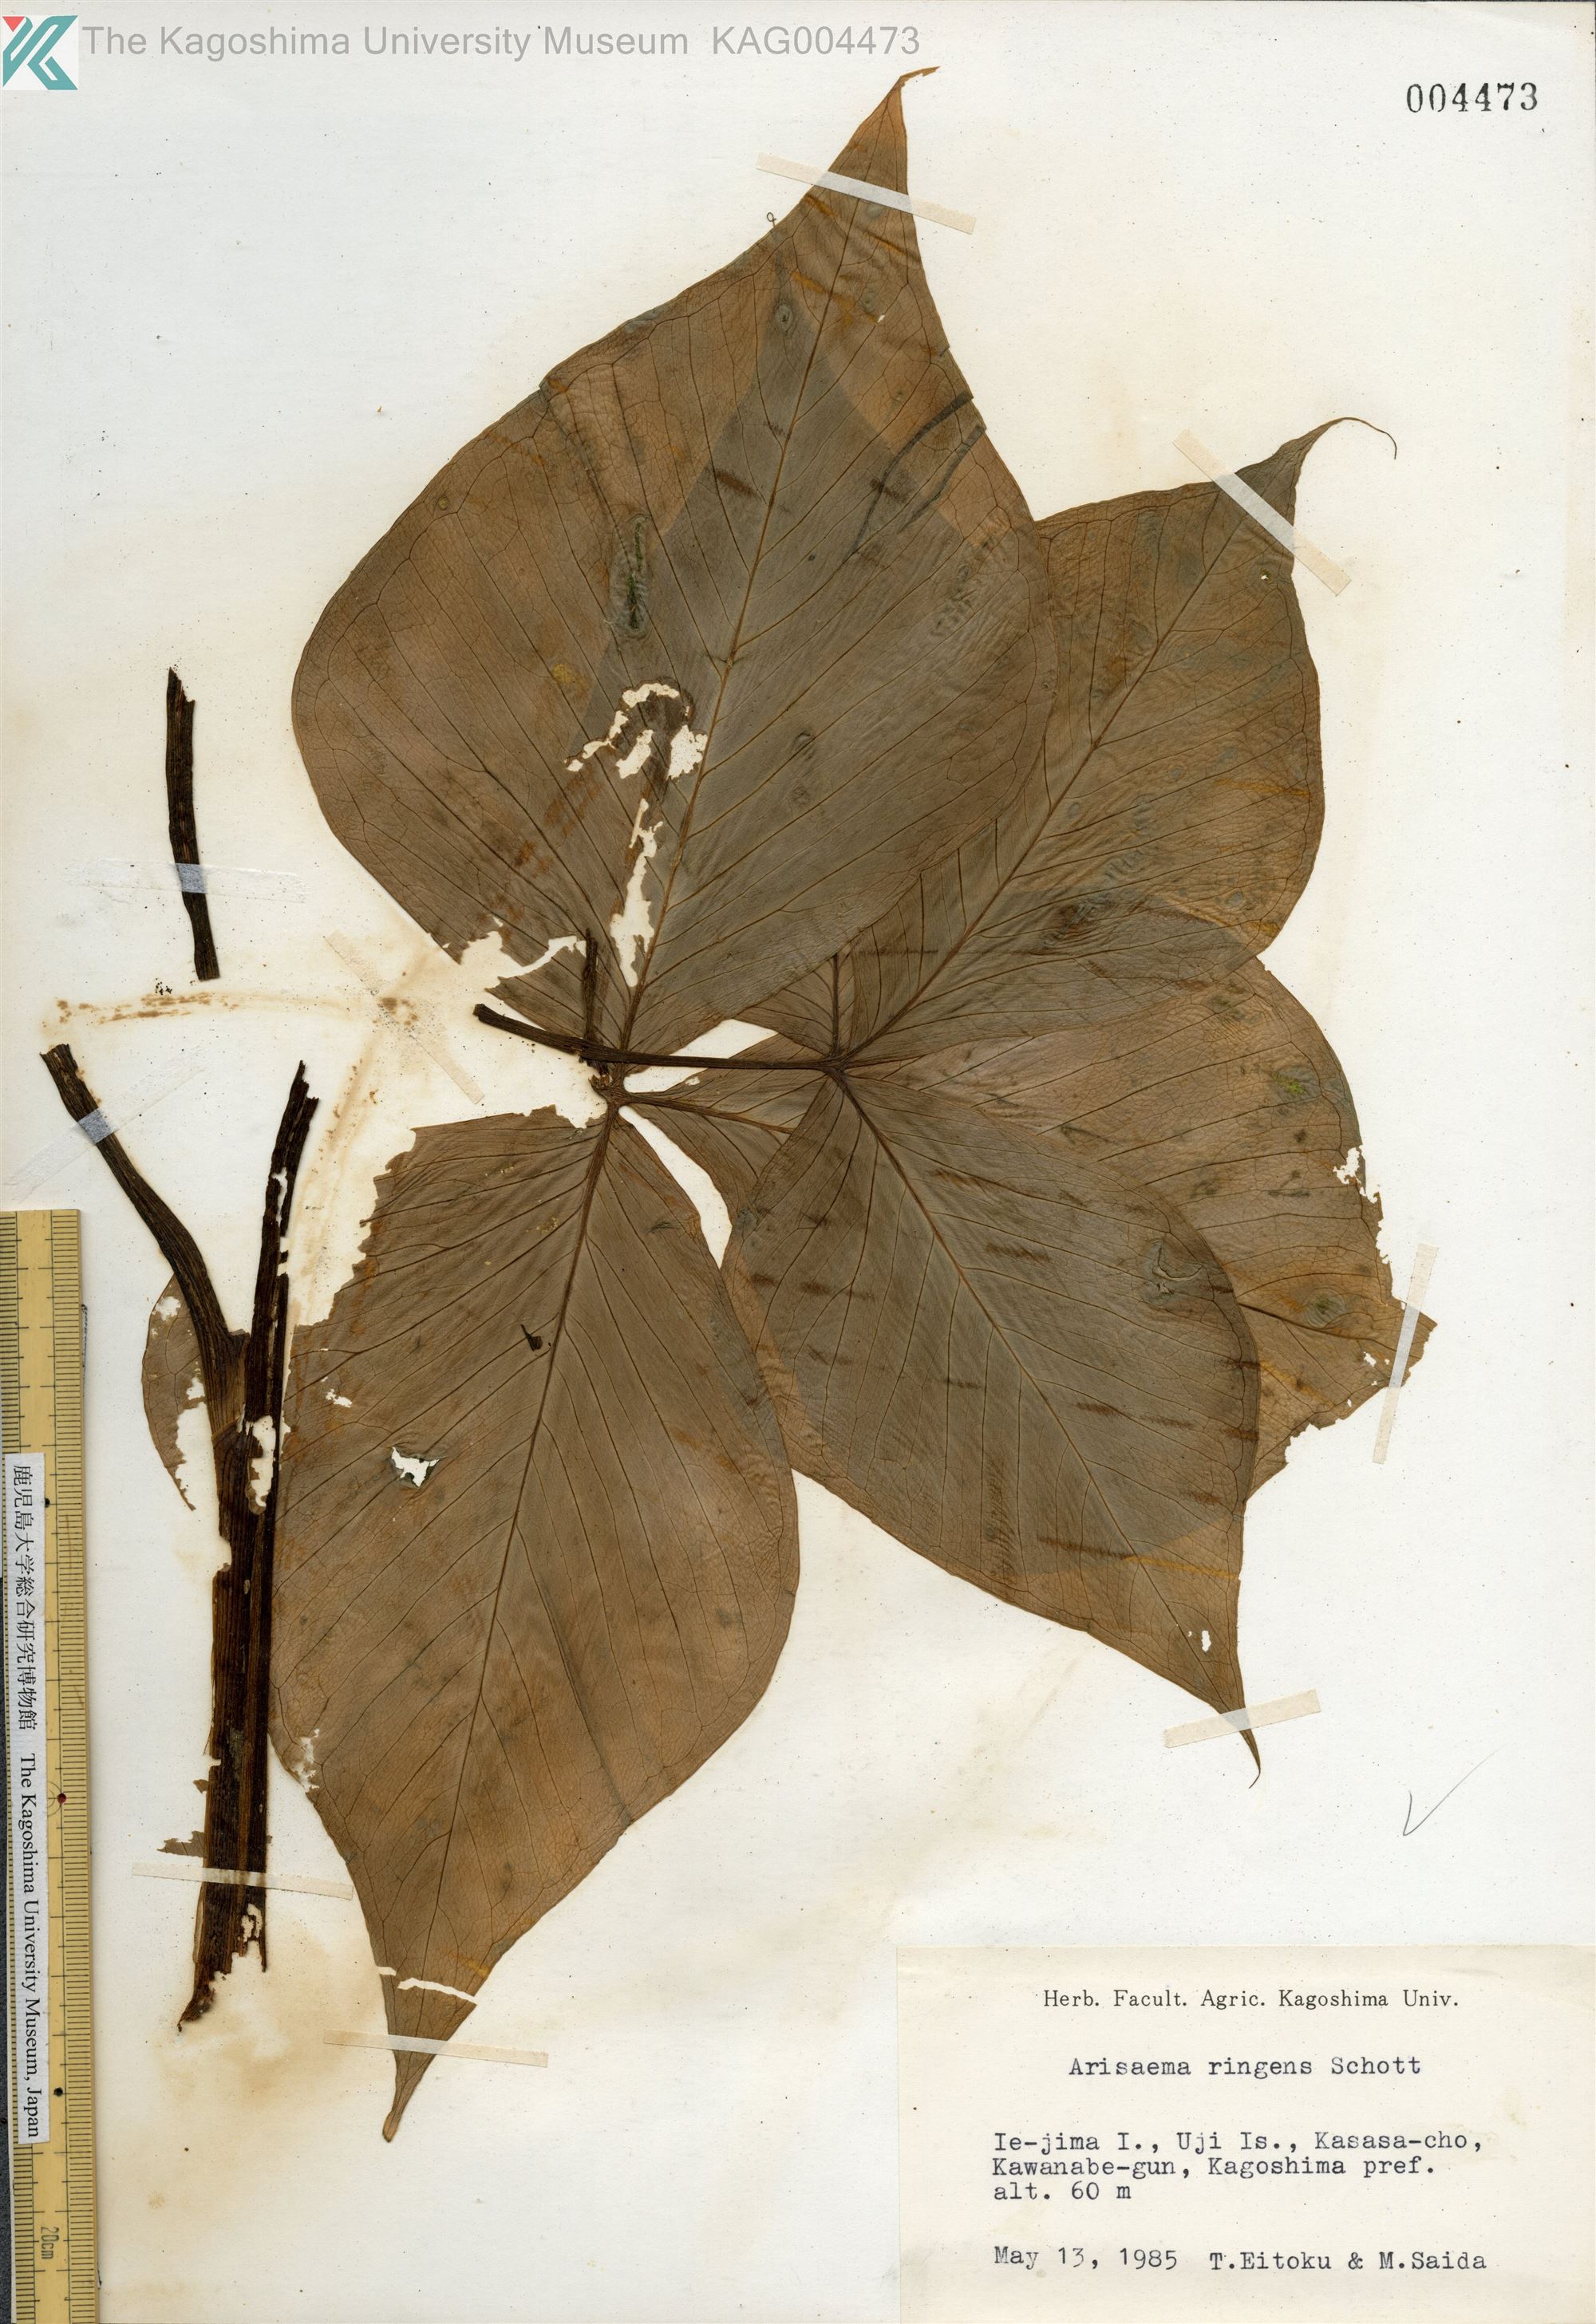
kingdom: Plantae
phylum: Tracheophyta
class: Liliopsida
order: Alismatales
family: Araceae
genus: Arisaema
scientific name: Arisaema ringens
